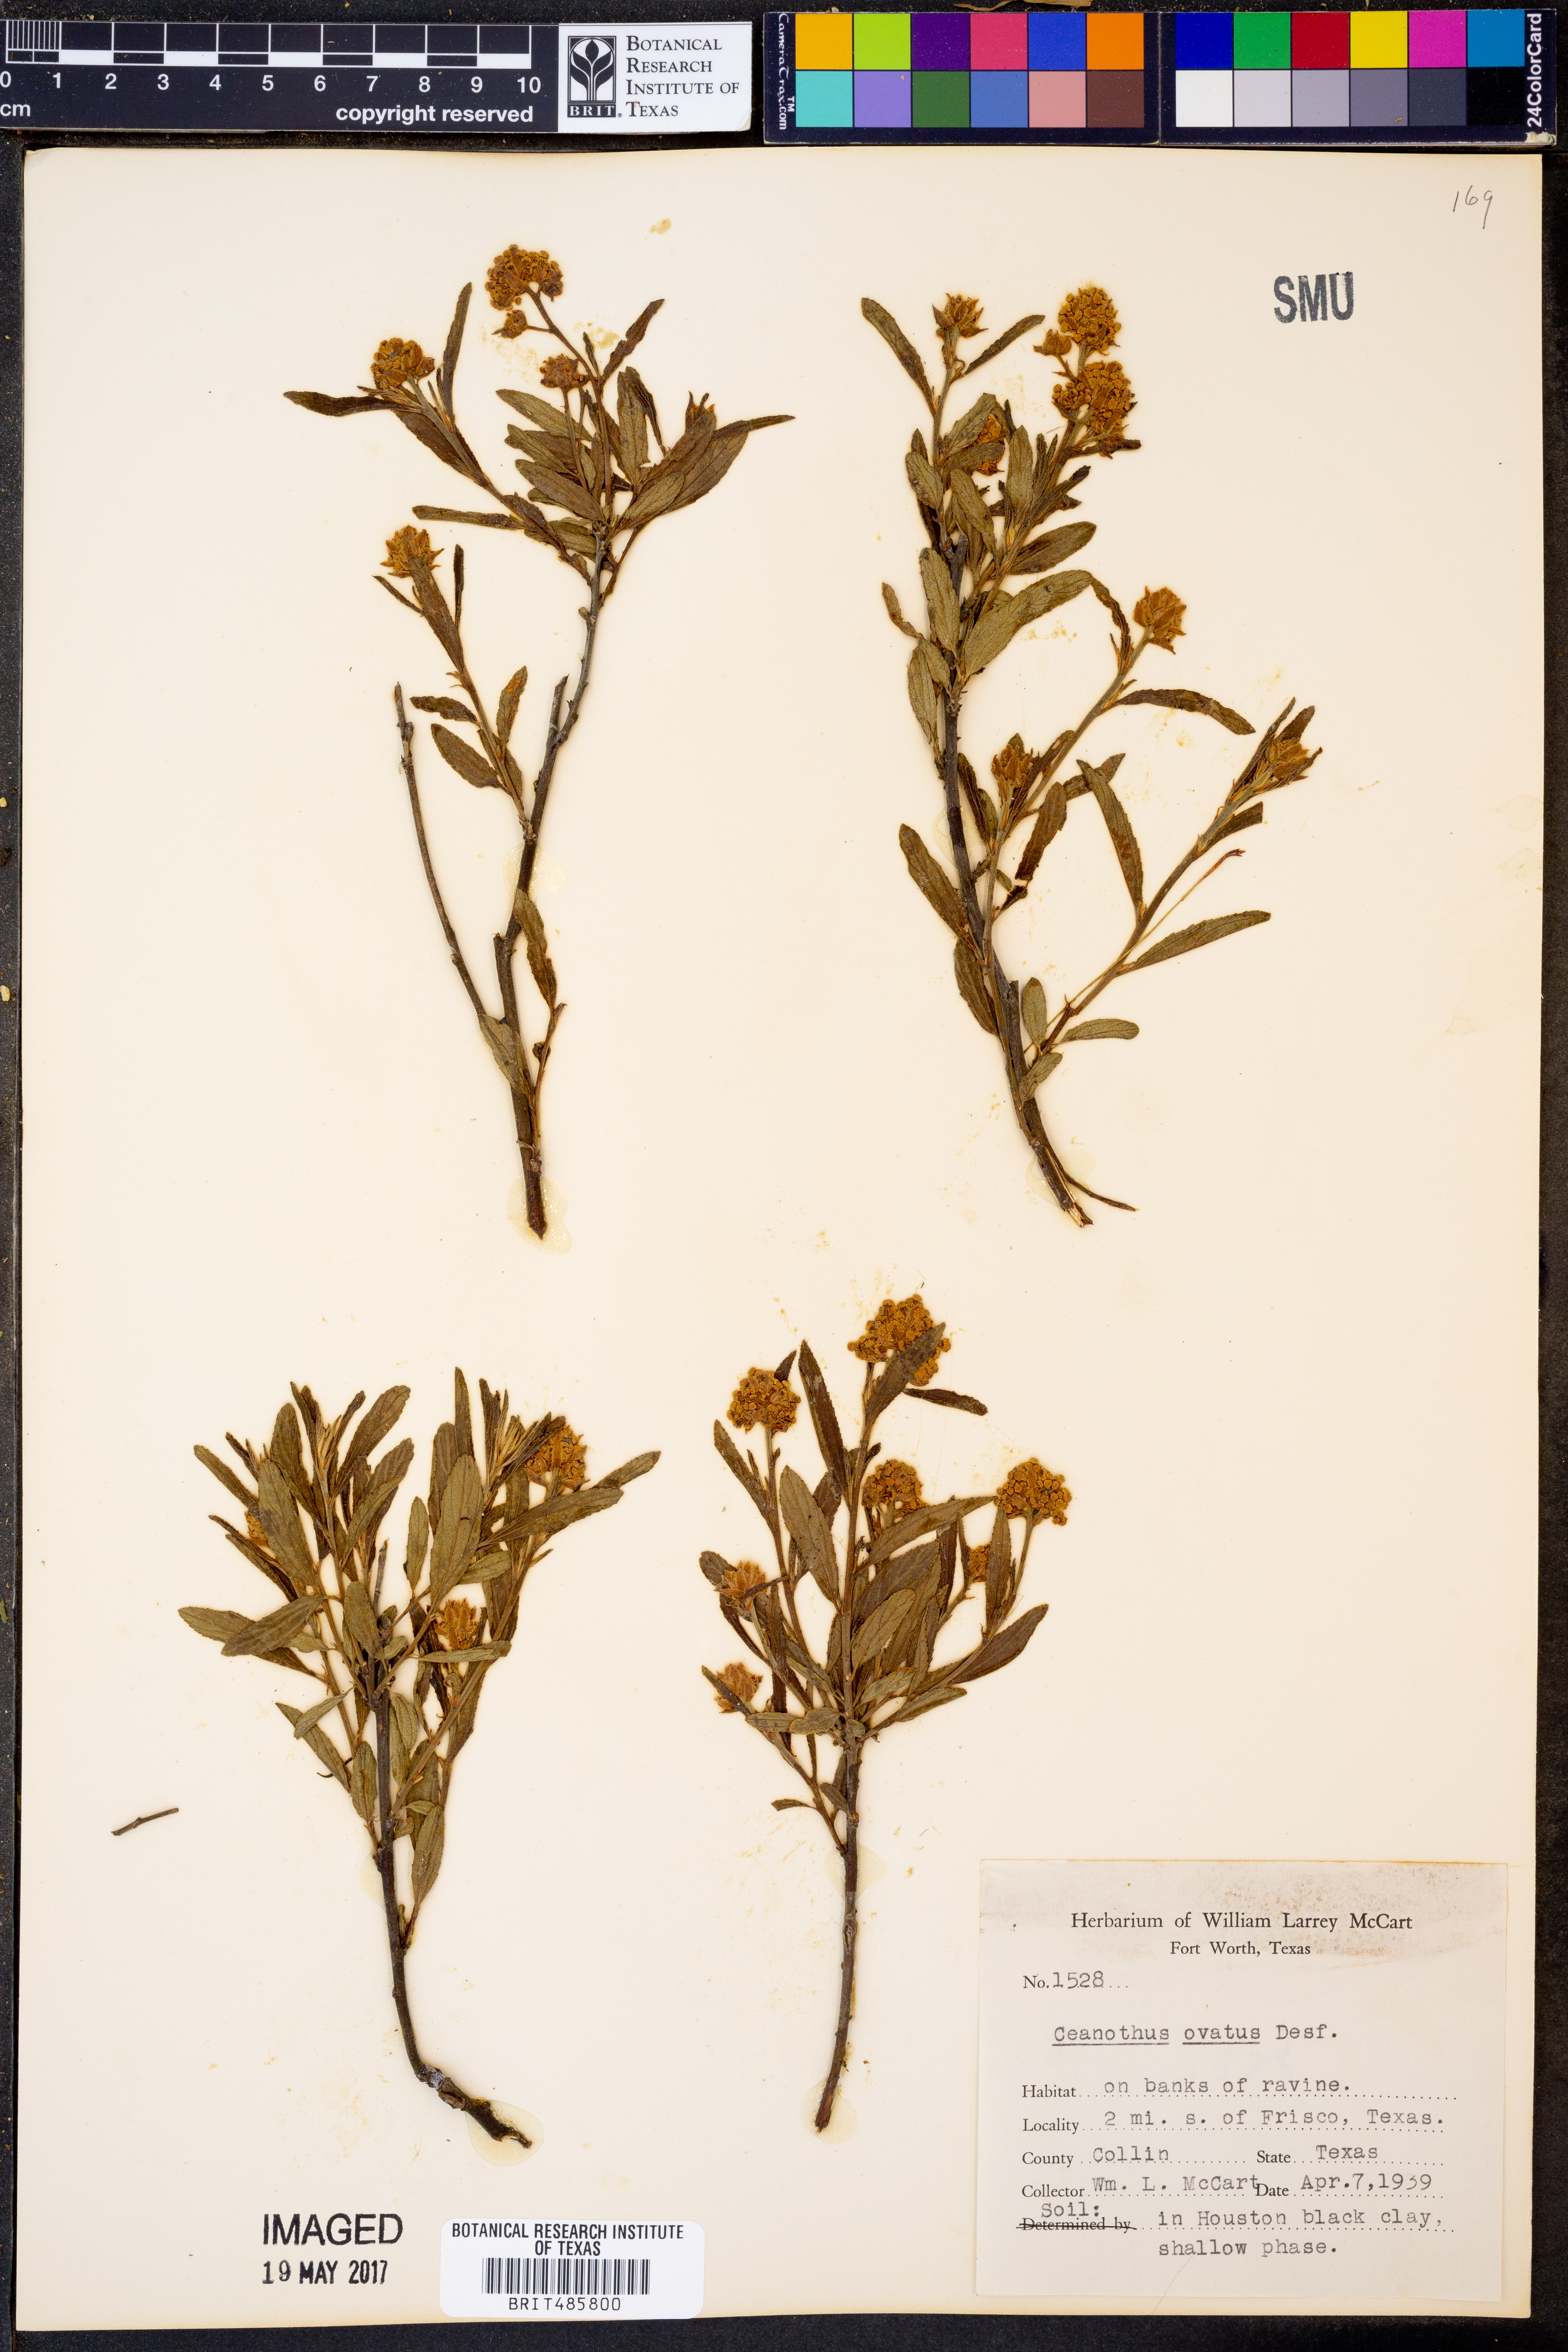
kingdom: Plantae
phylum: Tracheophyta
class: Magnoliopsida
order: Rosales
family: Rhamnaceae
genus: Ceanothus
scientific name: Ceanothus herbaceus
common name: Inland ceanothus
